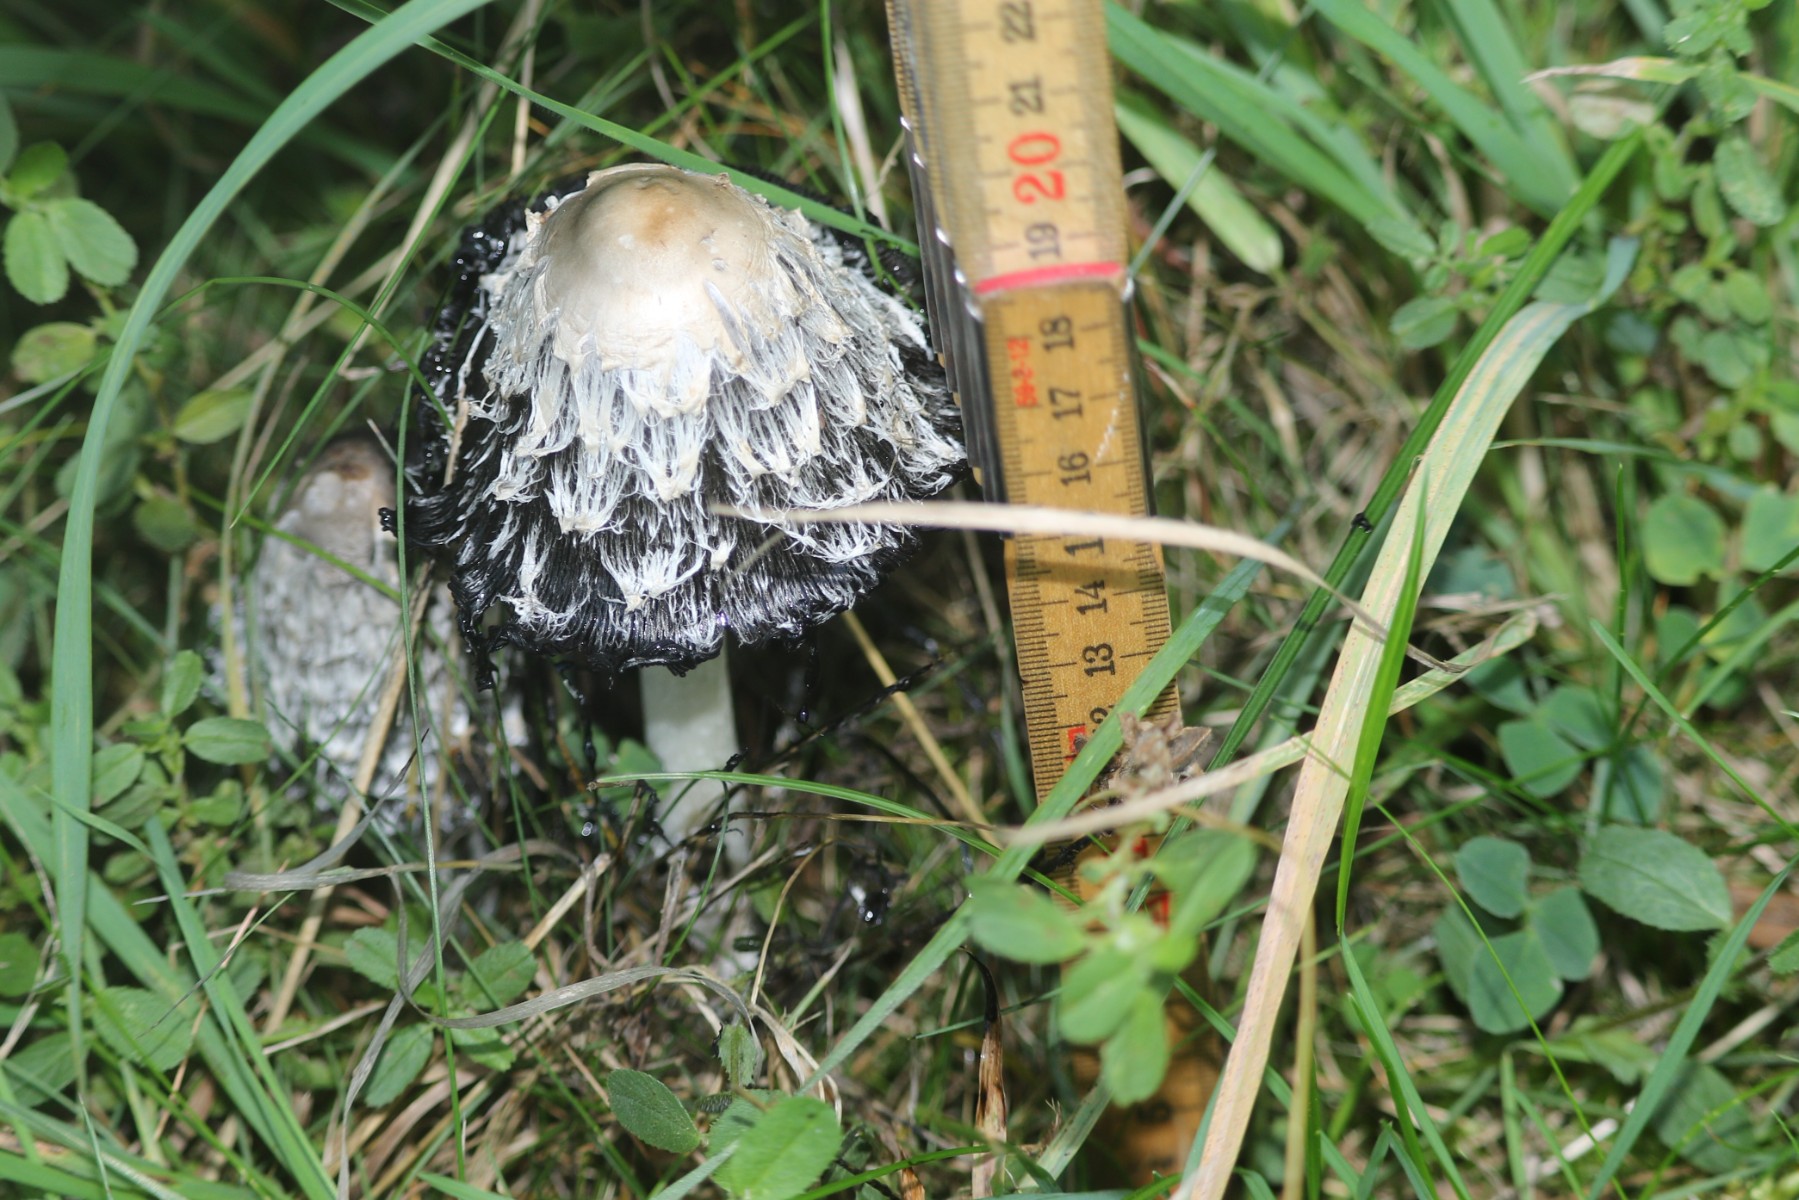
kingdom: Fungi
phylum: Basidiomycota
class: Agaricomycetes
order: Agaricales
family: Agaricaceae
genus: Coprinus
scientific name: Coprinus comatus
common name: stor parykhat
